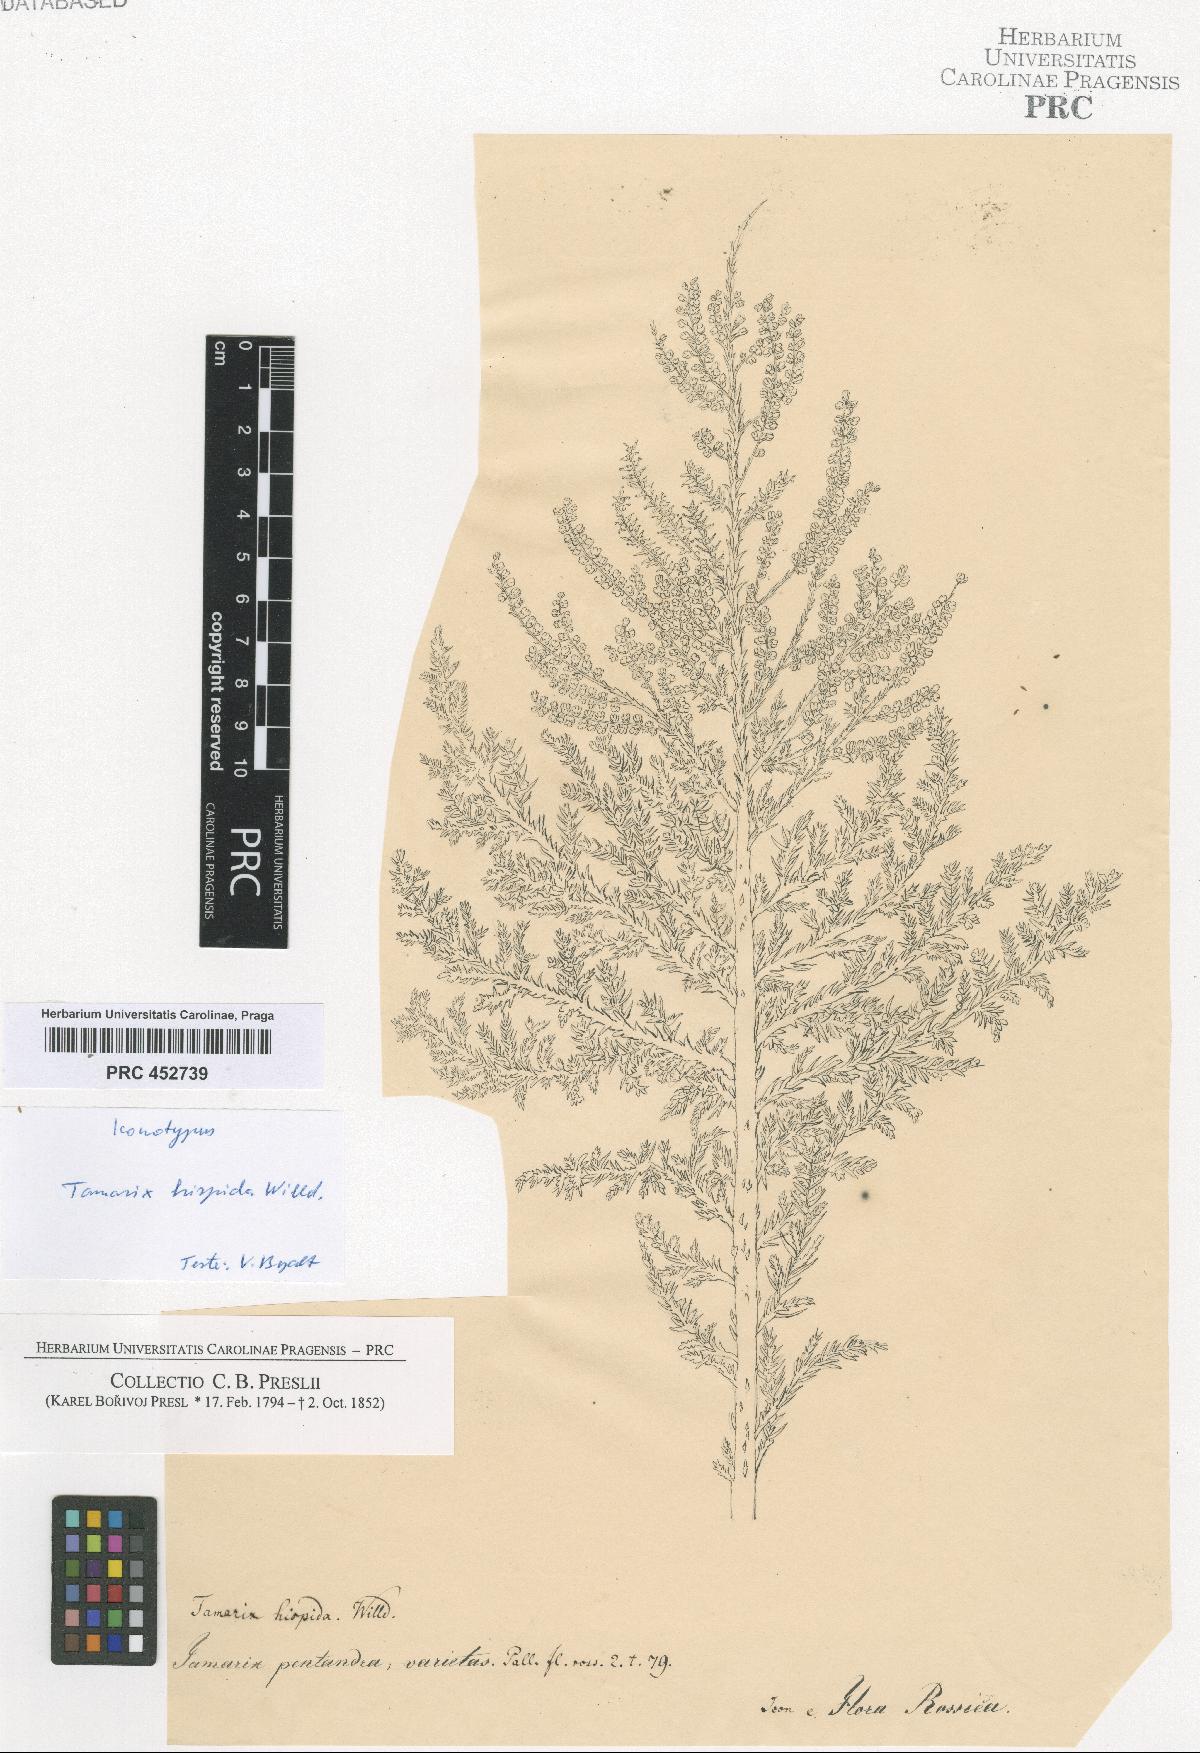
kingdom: Plantae
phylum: Tracheophyta
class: Magnoliopsida
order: Caryophyllales
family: Tamaricaceae
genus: Tamarix
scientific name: Tamarix hispida
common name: Kashgar tamarisk
